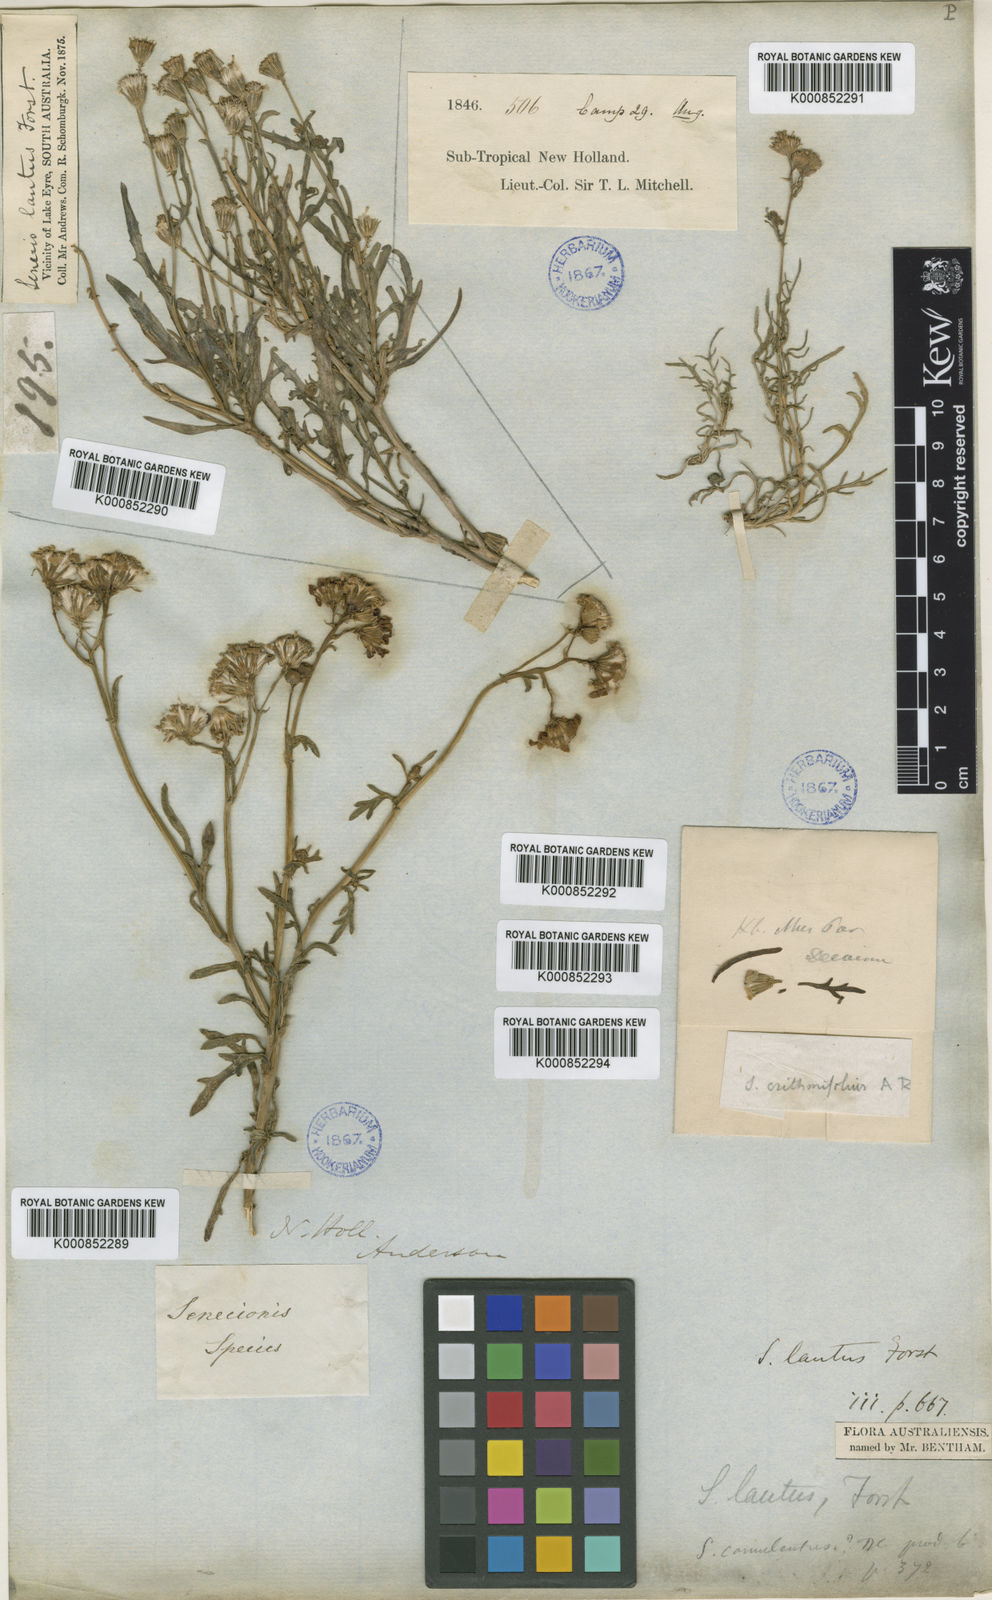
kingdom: Plantae
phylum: Tracheophyta
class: Magnoliopsida
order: Asterales
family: Asteraceae
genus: Senecio
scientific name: Senecio
